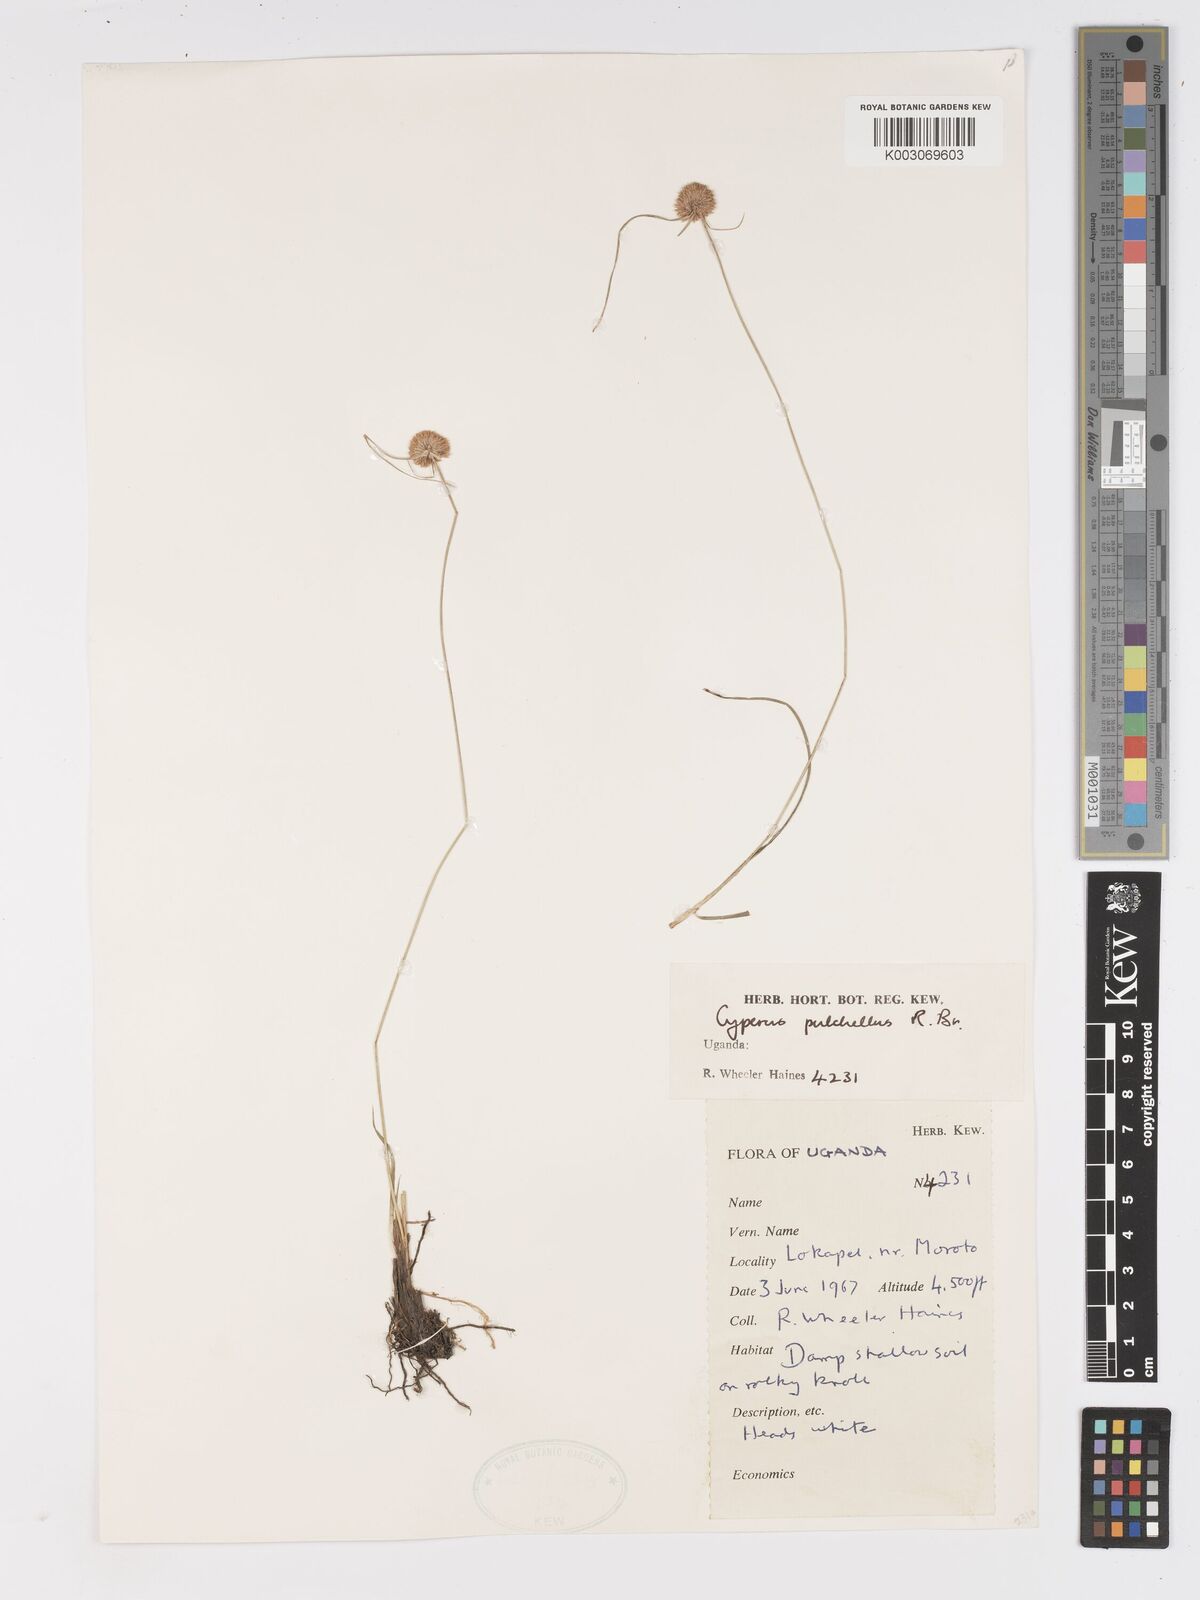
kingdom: Plantae
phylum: Tracheophyta
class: Liliopsida
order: Poales
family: Cyperaceae
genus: Cyperus
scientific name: Cyperus pulchellus
